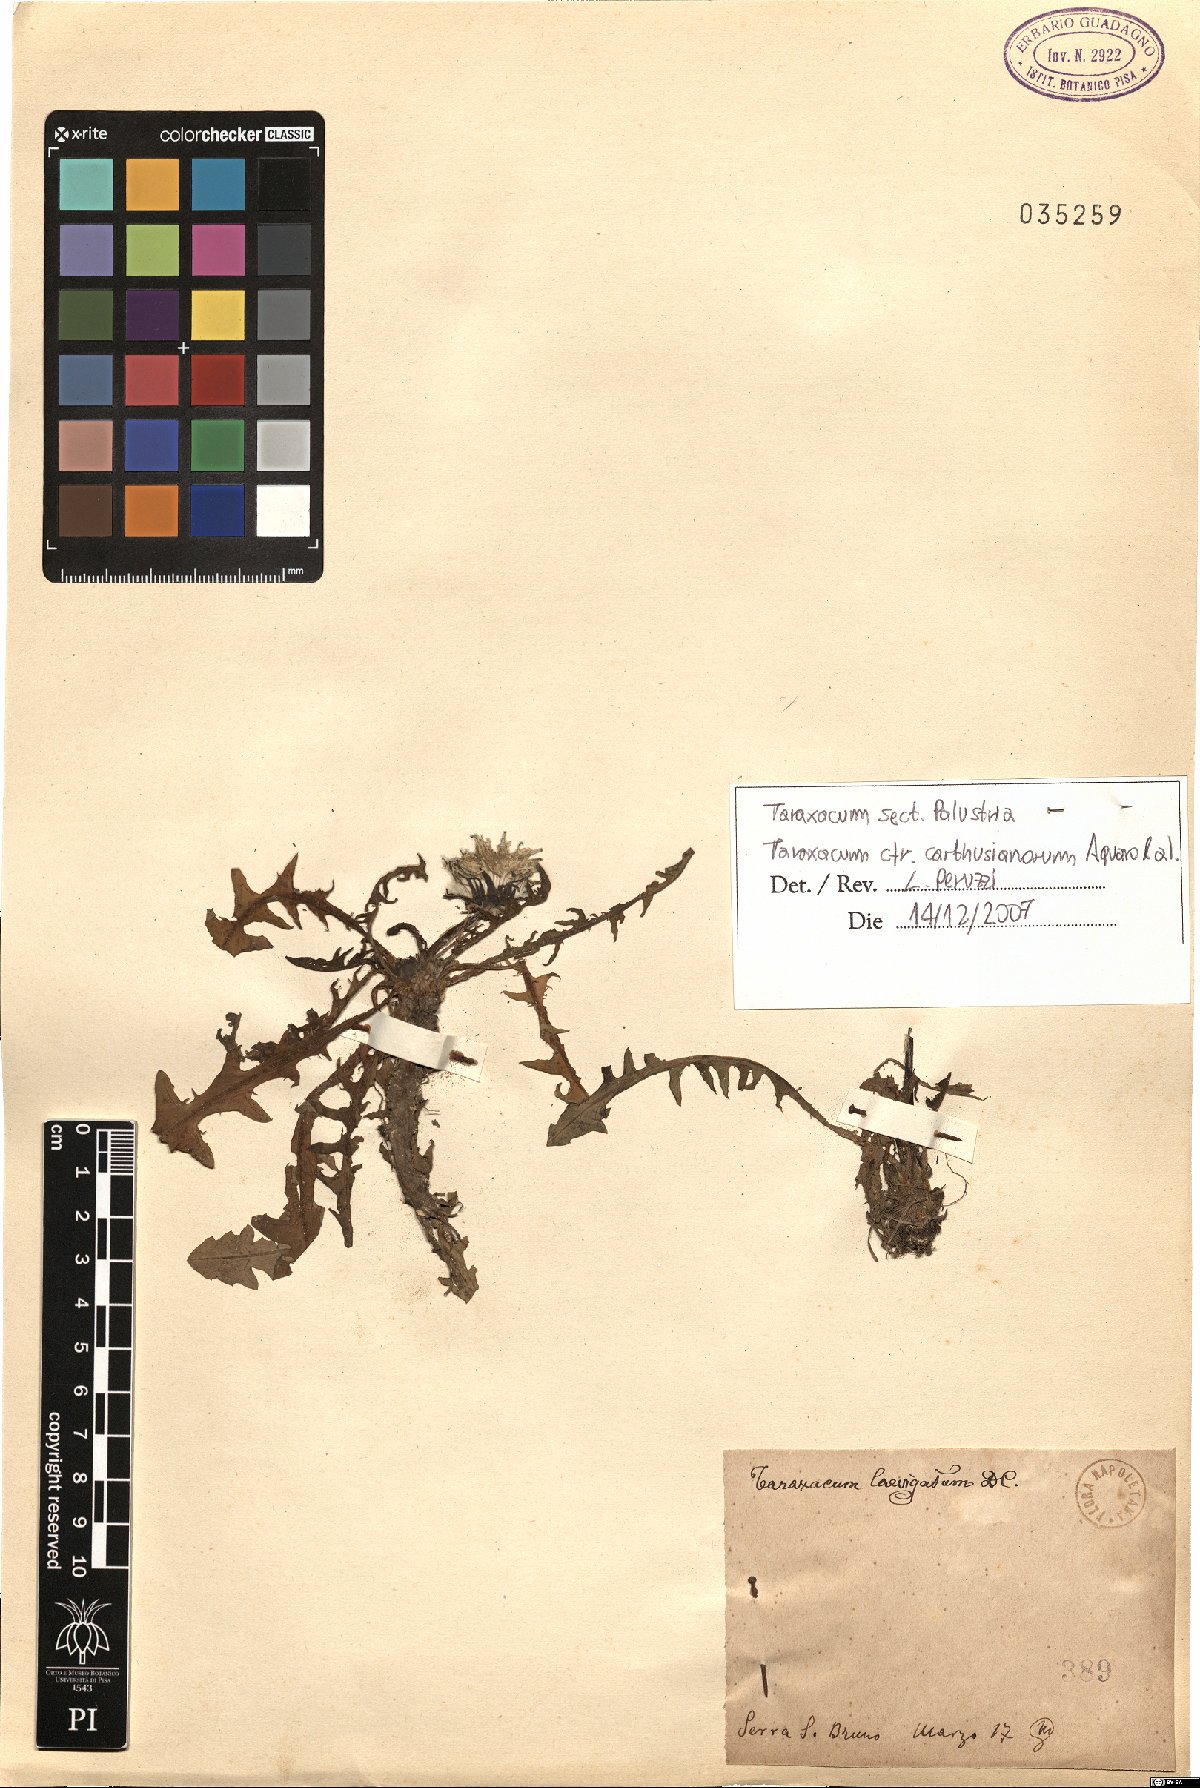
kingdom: Plantae
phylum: Tracheophyta
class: Magnoliopsida
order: Asterales
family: Asteraceae
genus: Taraxacum
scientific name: Taraxacum carthusianorum
